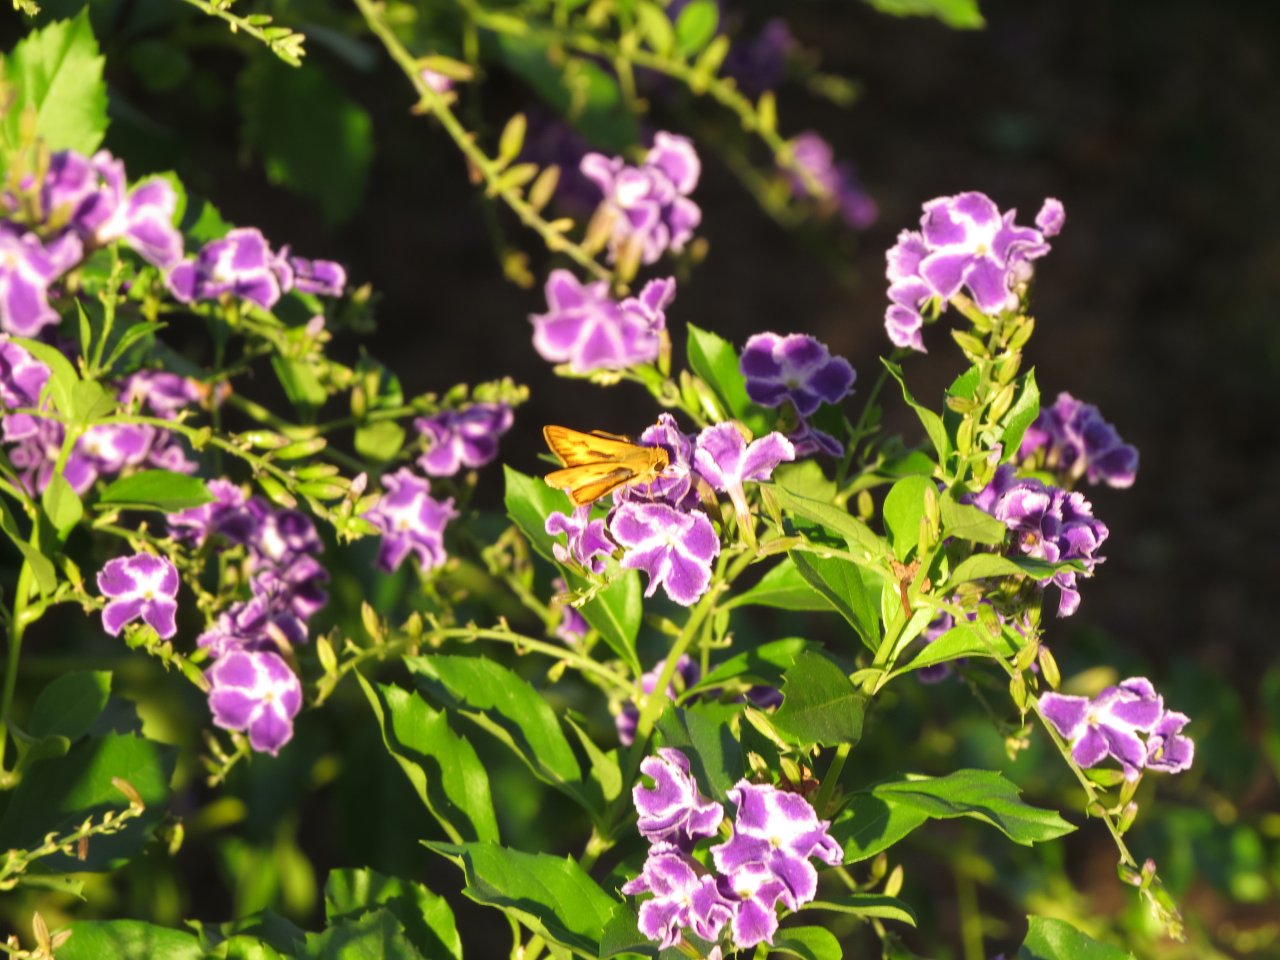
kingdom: Animalia
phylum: Arthropoda
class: Insecta
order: Lepidoptera
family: Hesperiidae
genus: Hylephila
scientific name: Hylephila phyleus
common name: Fiery Skipper
